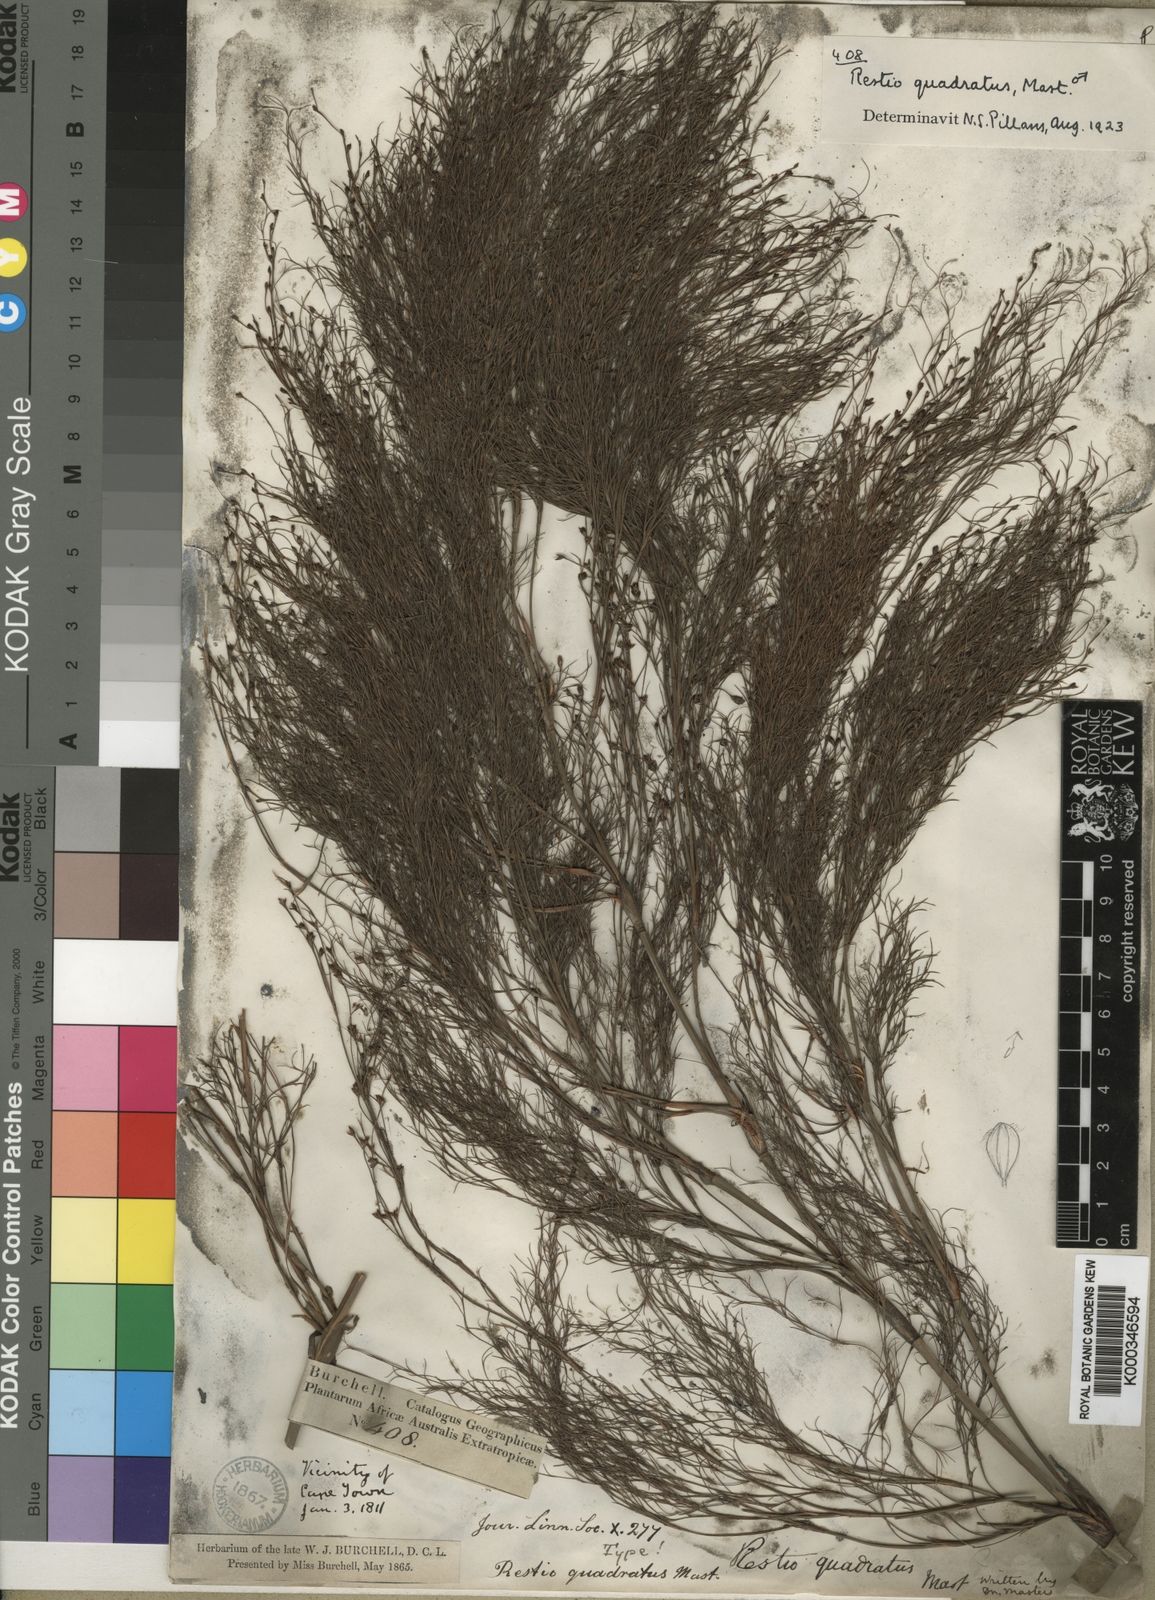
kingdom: Plantae
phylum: Tracheophyta
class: Liliopsida
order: Poales
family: Restionaceae
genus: Restio
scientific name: Restio quadratus
